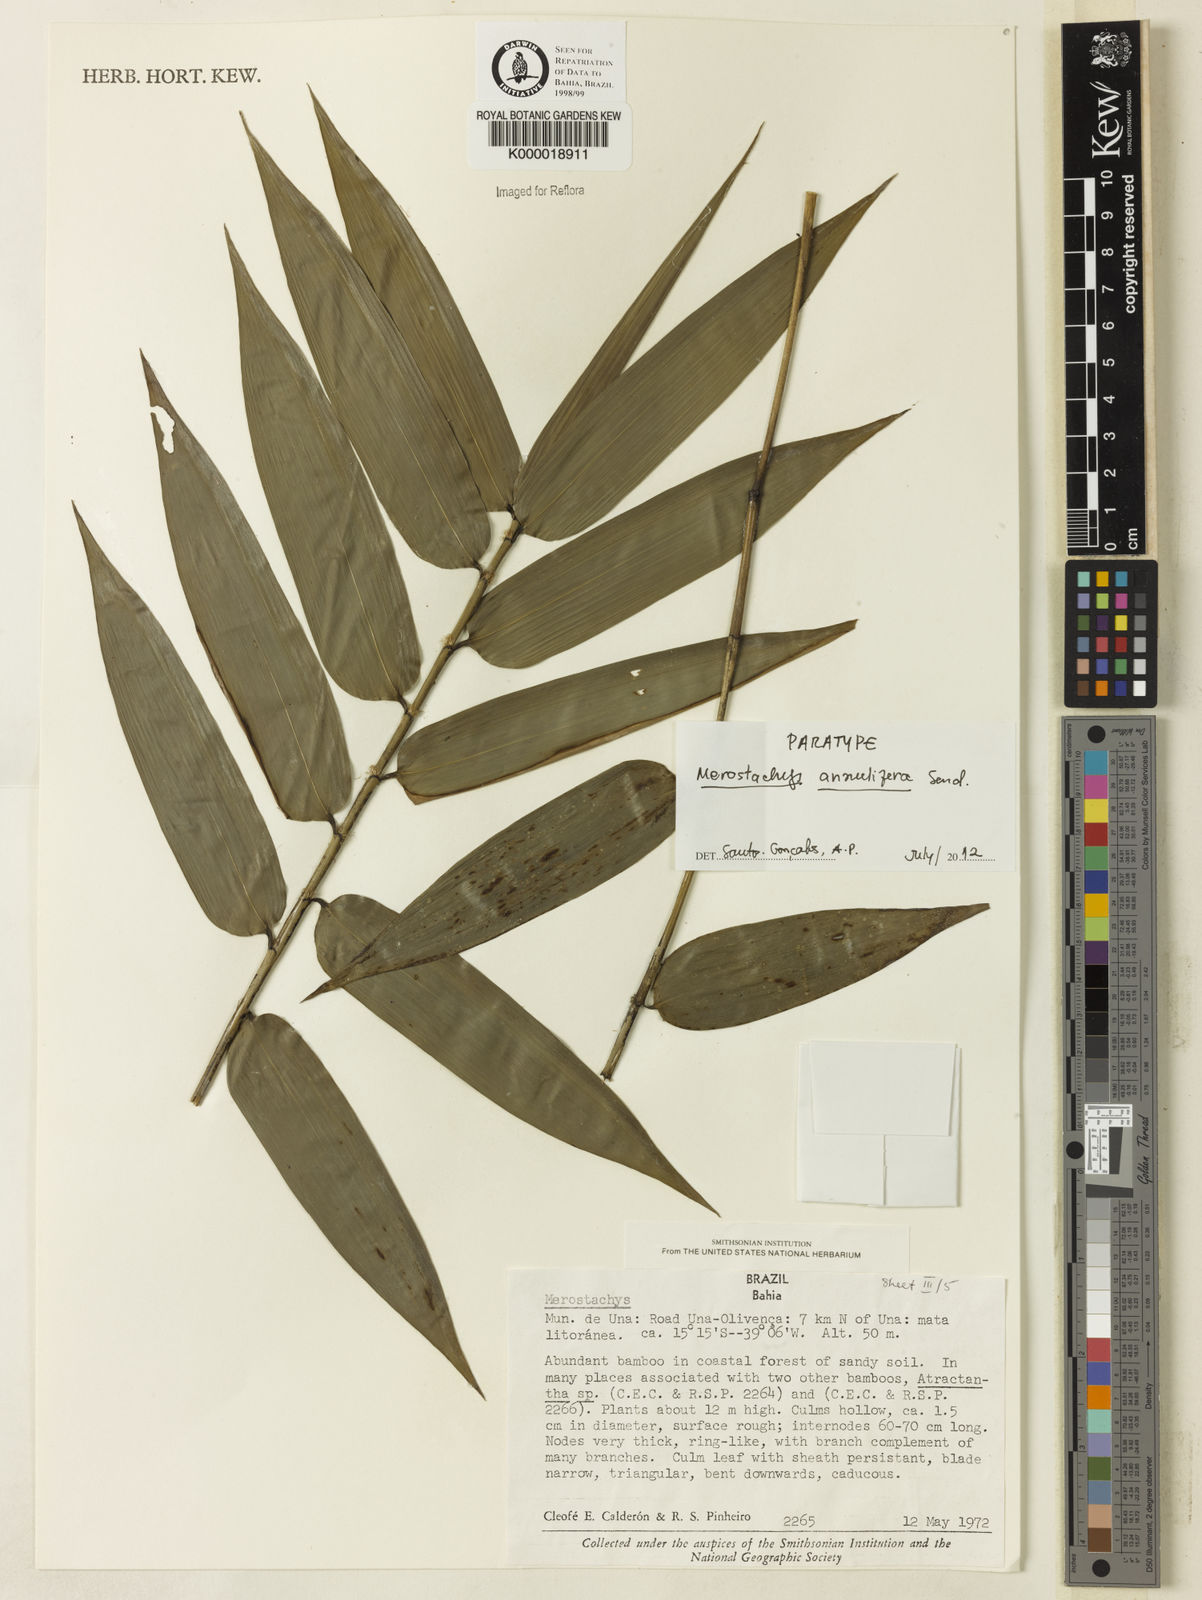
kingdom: Plantae
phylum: Tracheophyta
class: Liliopsida
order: Poales
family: Poaceae
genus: Merostachys
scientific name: Merostachys annulifera
